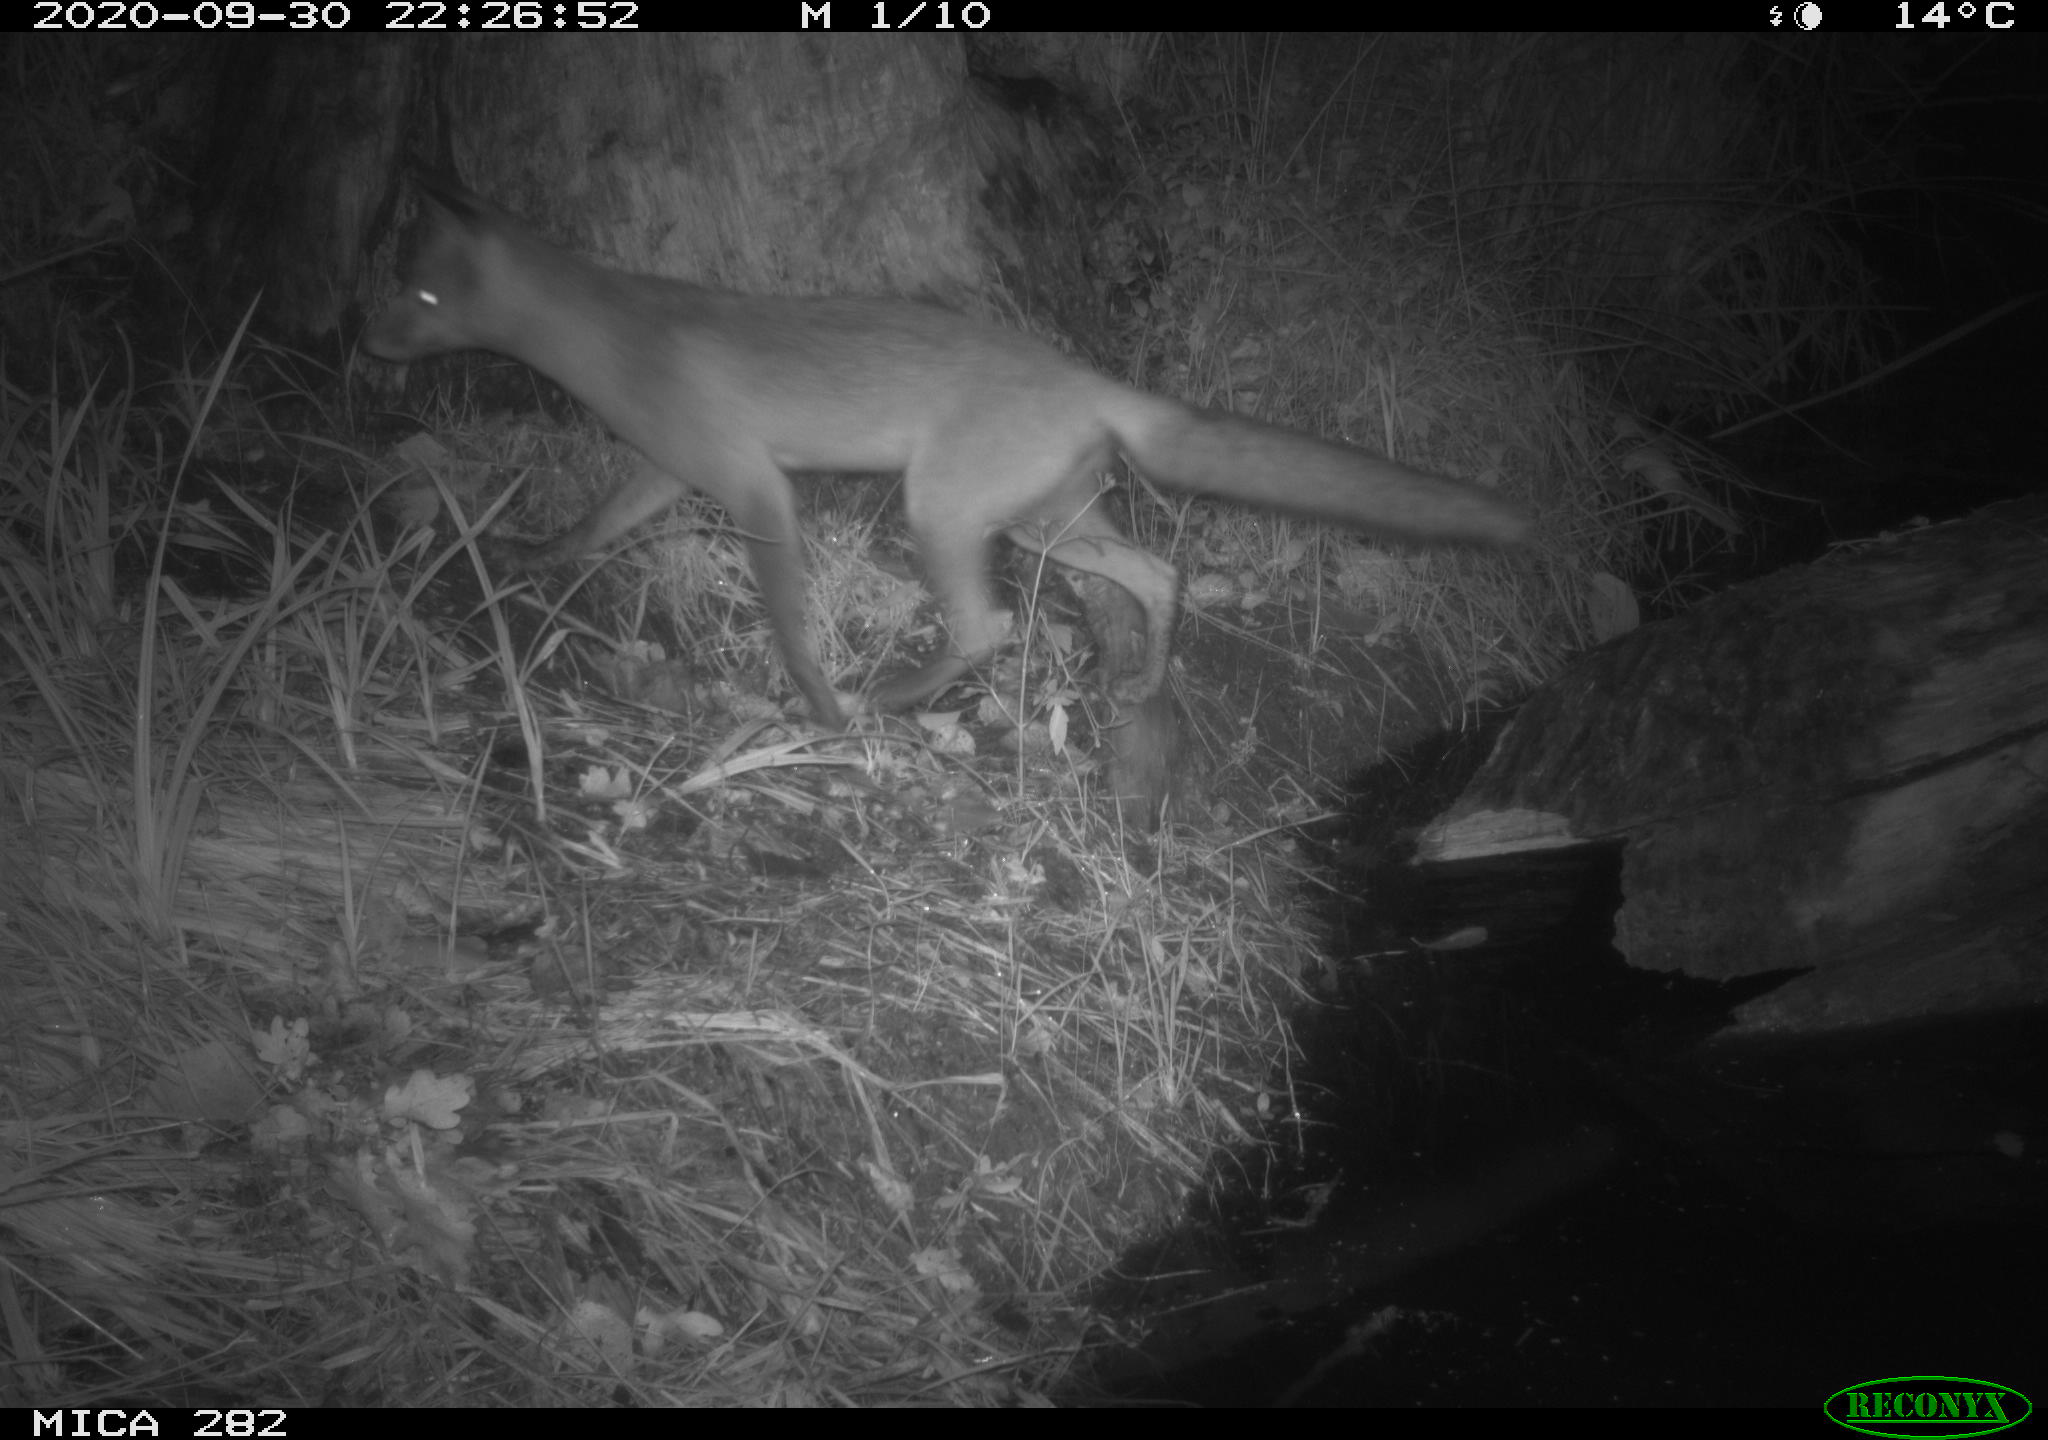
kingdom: Animalia
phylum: Chordata
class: Mammalia
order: Carnivora
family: Canidae
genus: Vulpes
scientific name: Vulpes vulpes
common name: Red fox
